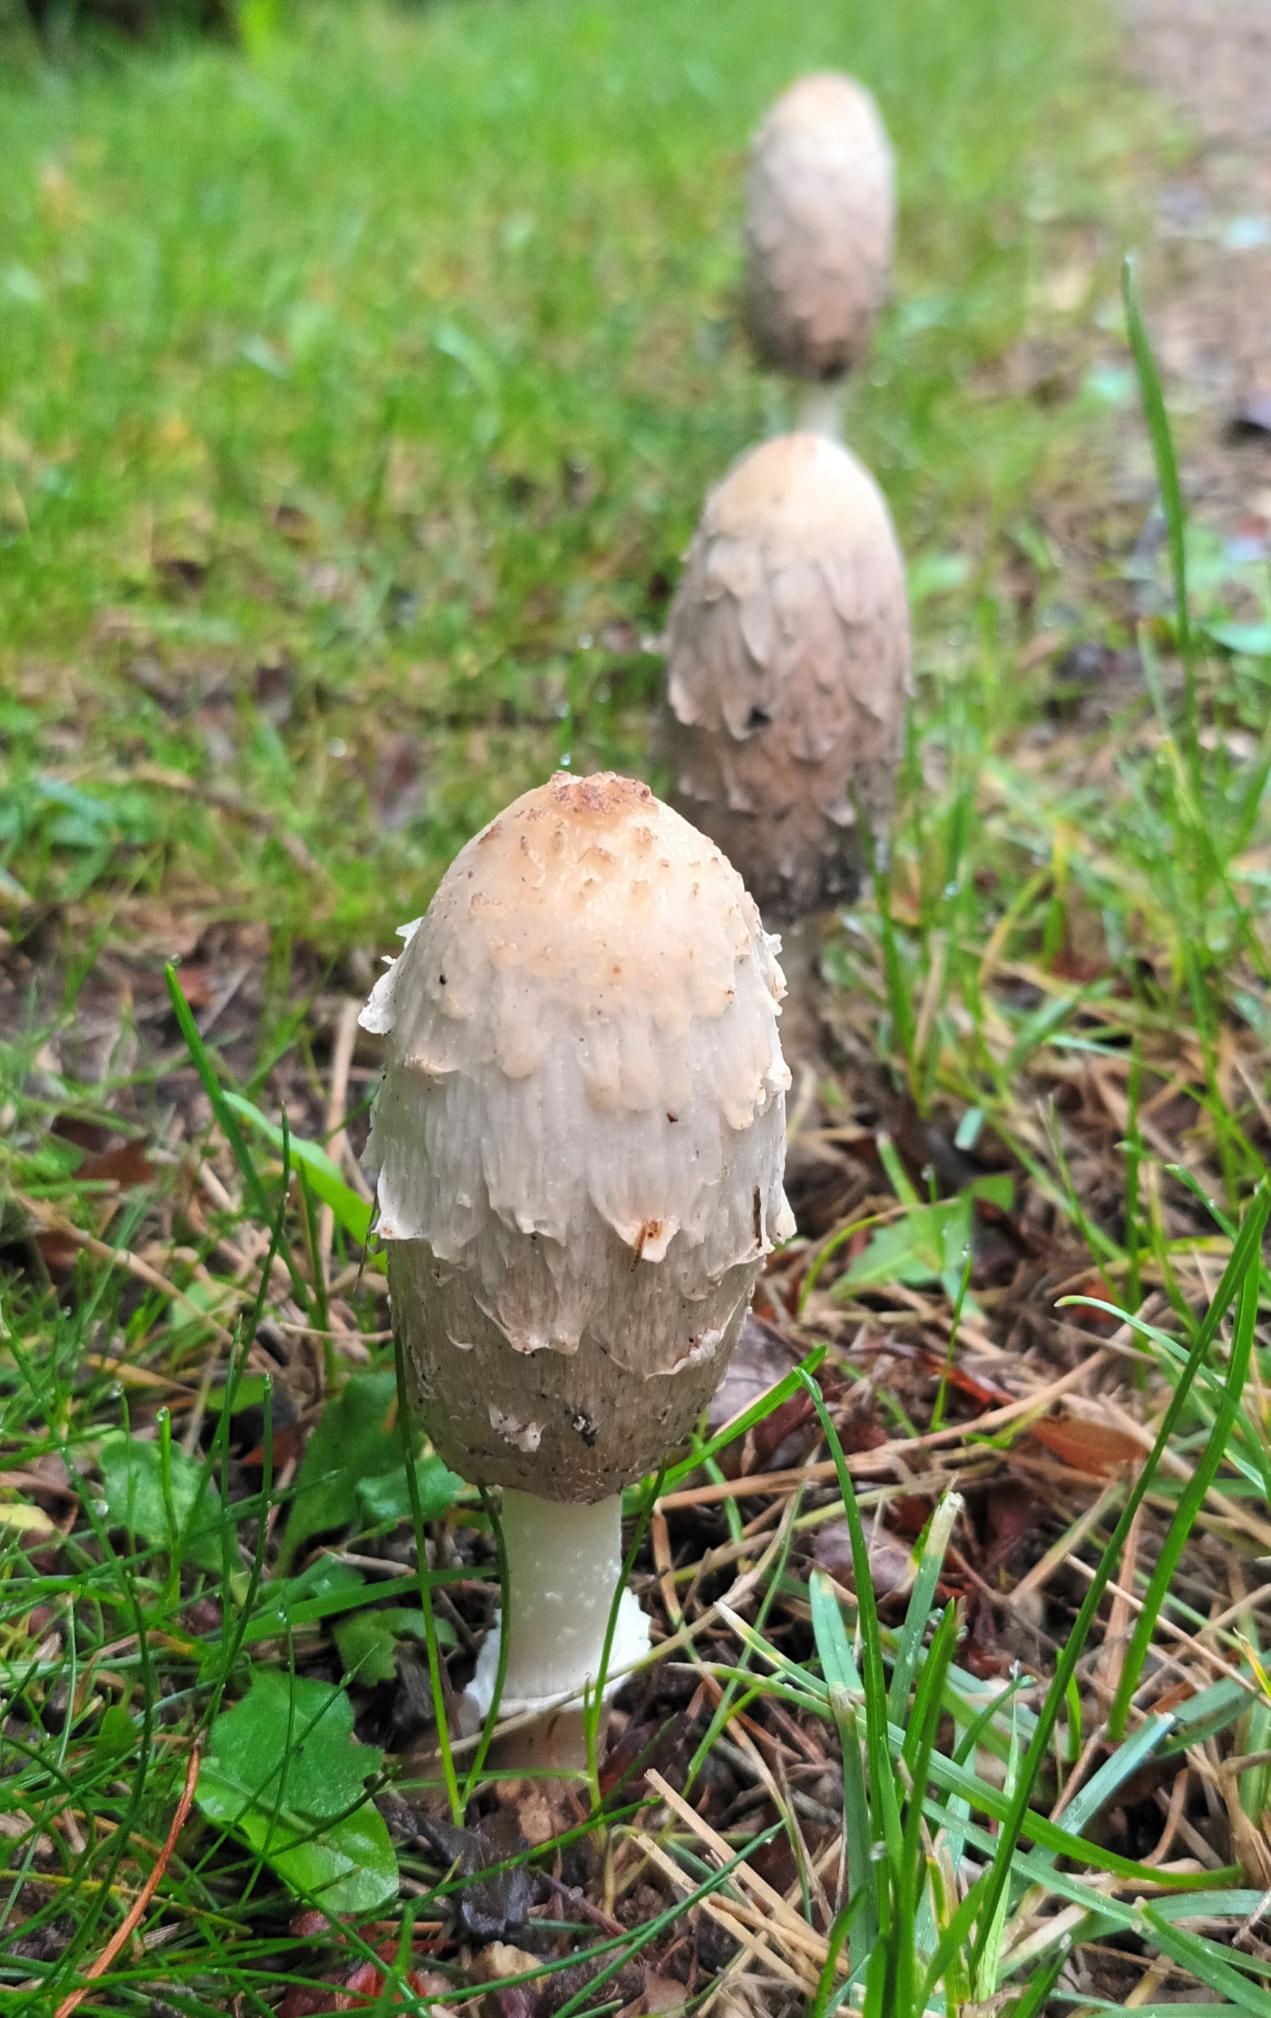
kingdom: Fungi
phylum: Basidiomycota
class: Agaricomycetes
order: Agaricales
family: Agaricaceae
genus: Coprinus
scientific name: Coprinus comatus
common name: Stor parykhat
